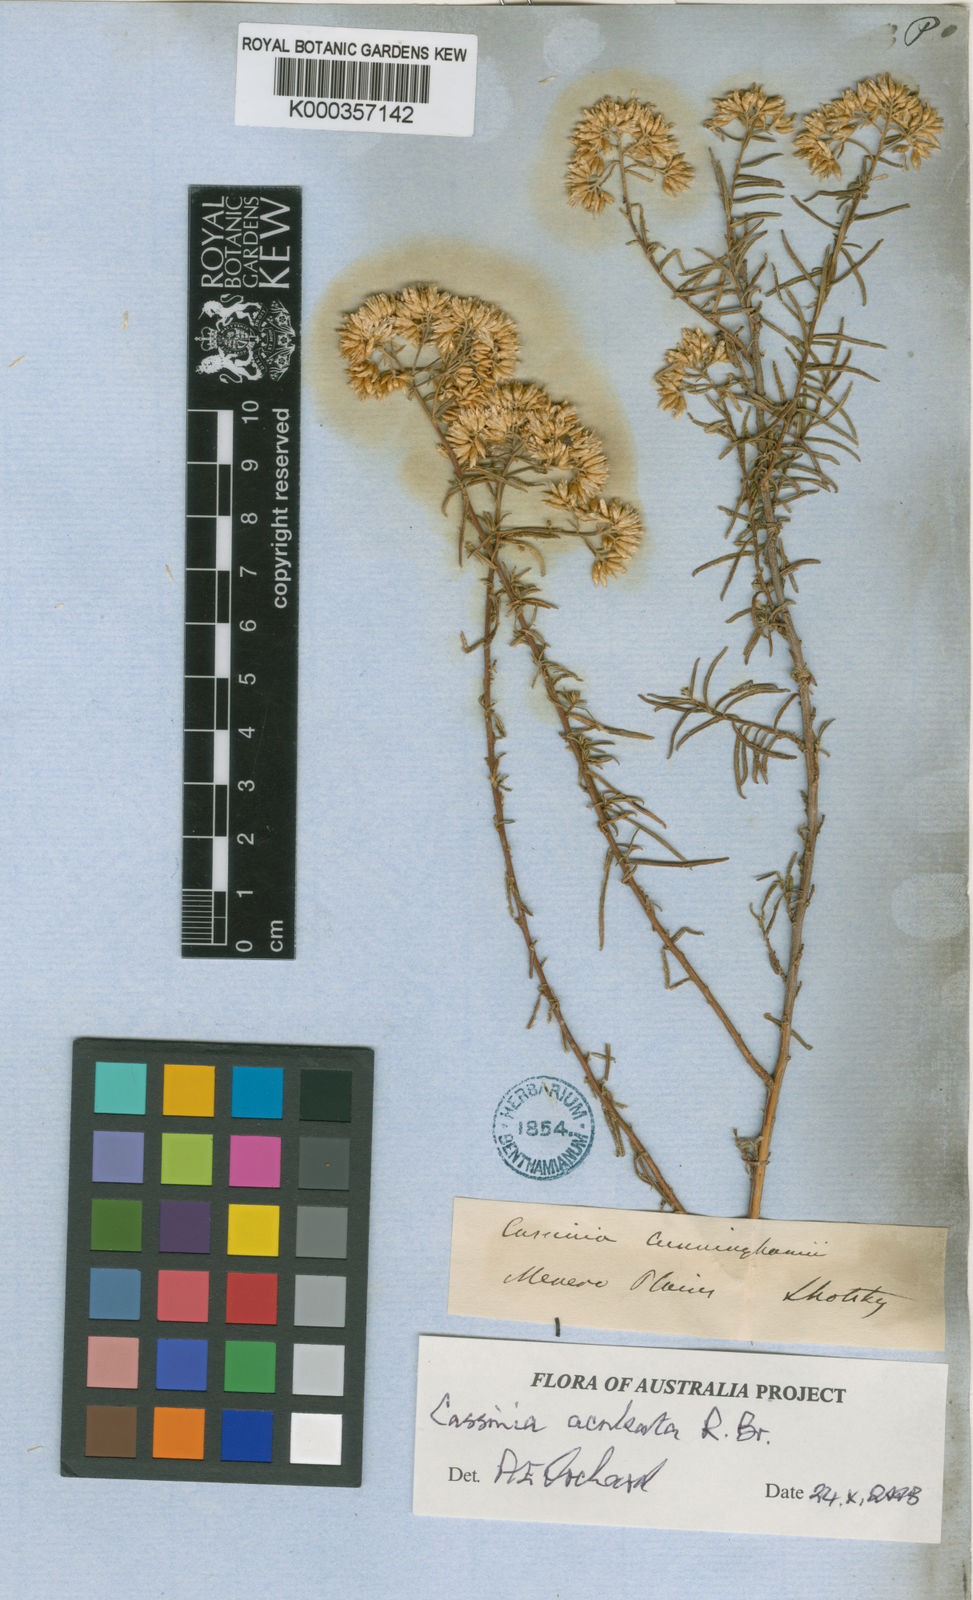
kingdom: Plantae
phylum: Tracheophyta
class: Magnoliopsida
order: Asterales
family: Asteraceae
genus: Cassinia
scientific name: Cassinia aculeata
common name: Australian tauhinu
